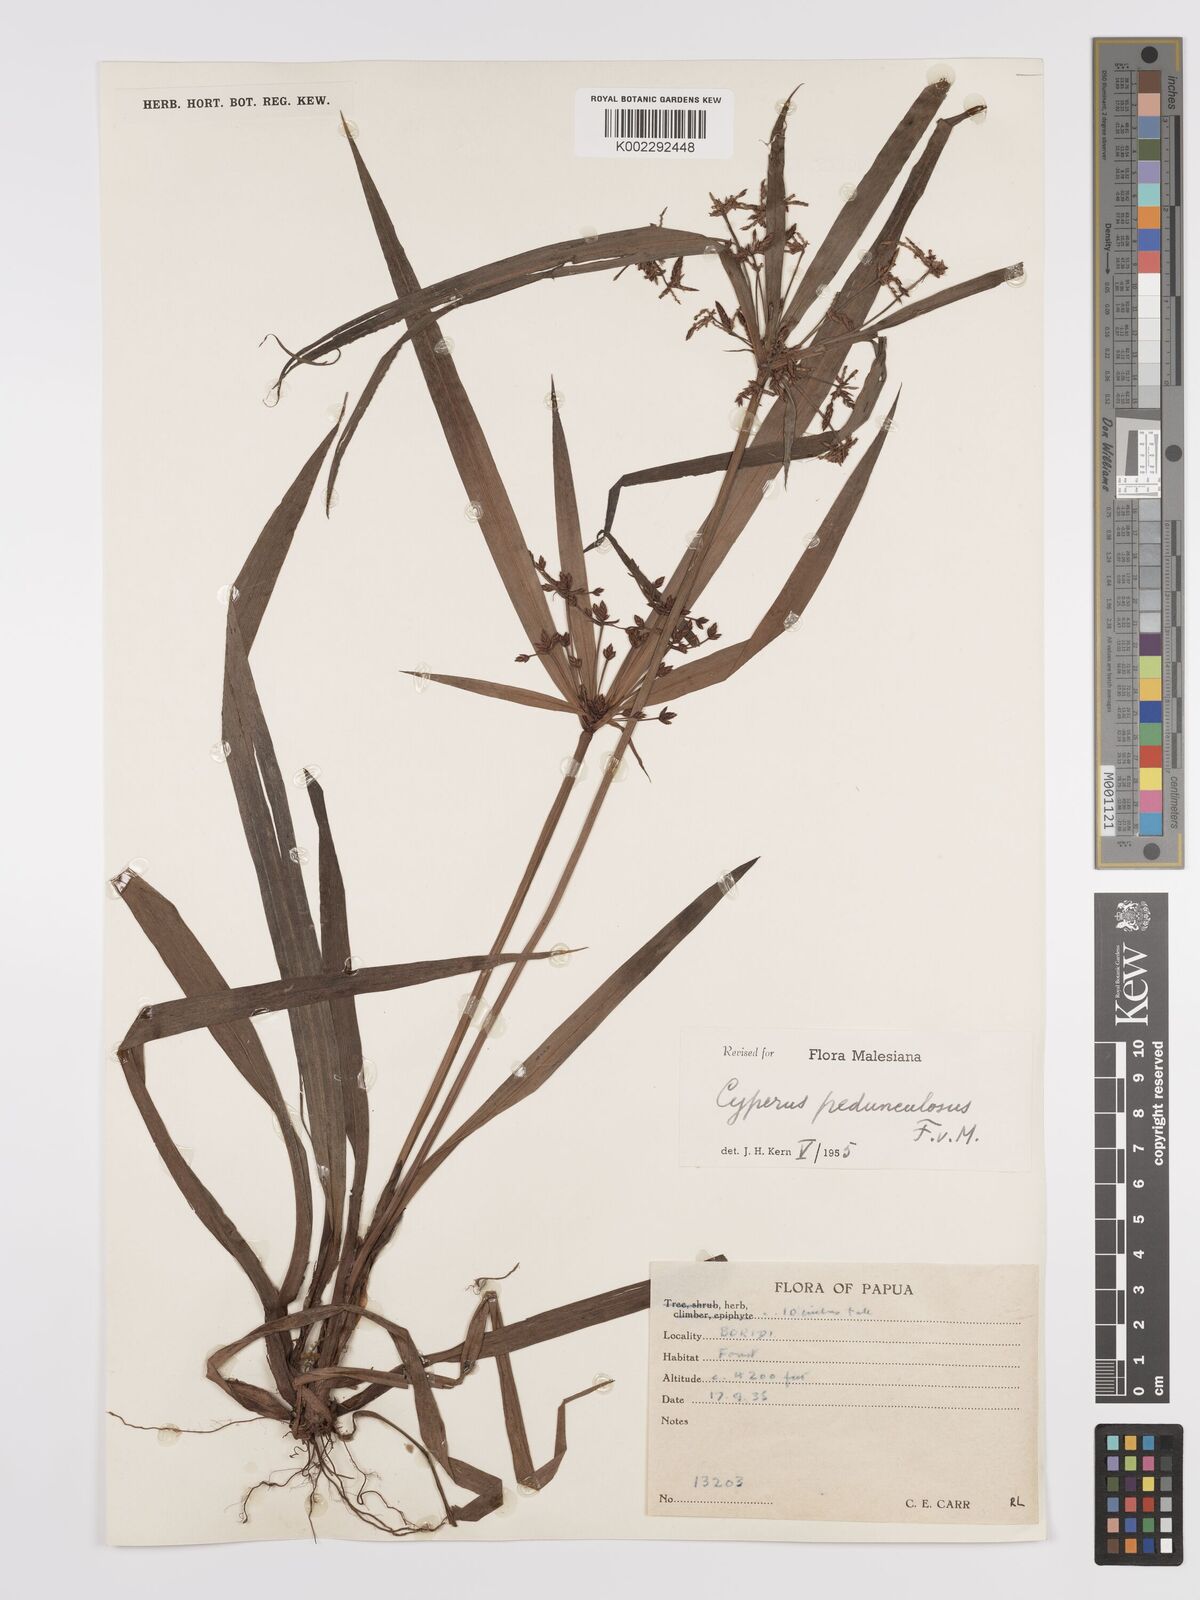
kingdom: Plantae
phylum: Tracheophyta
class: Liliopsida
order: Poales
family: Cyperaceae
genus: Cyperus
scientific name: Cyperus pedunculosus
